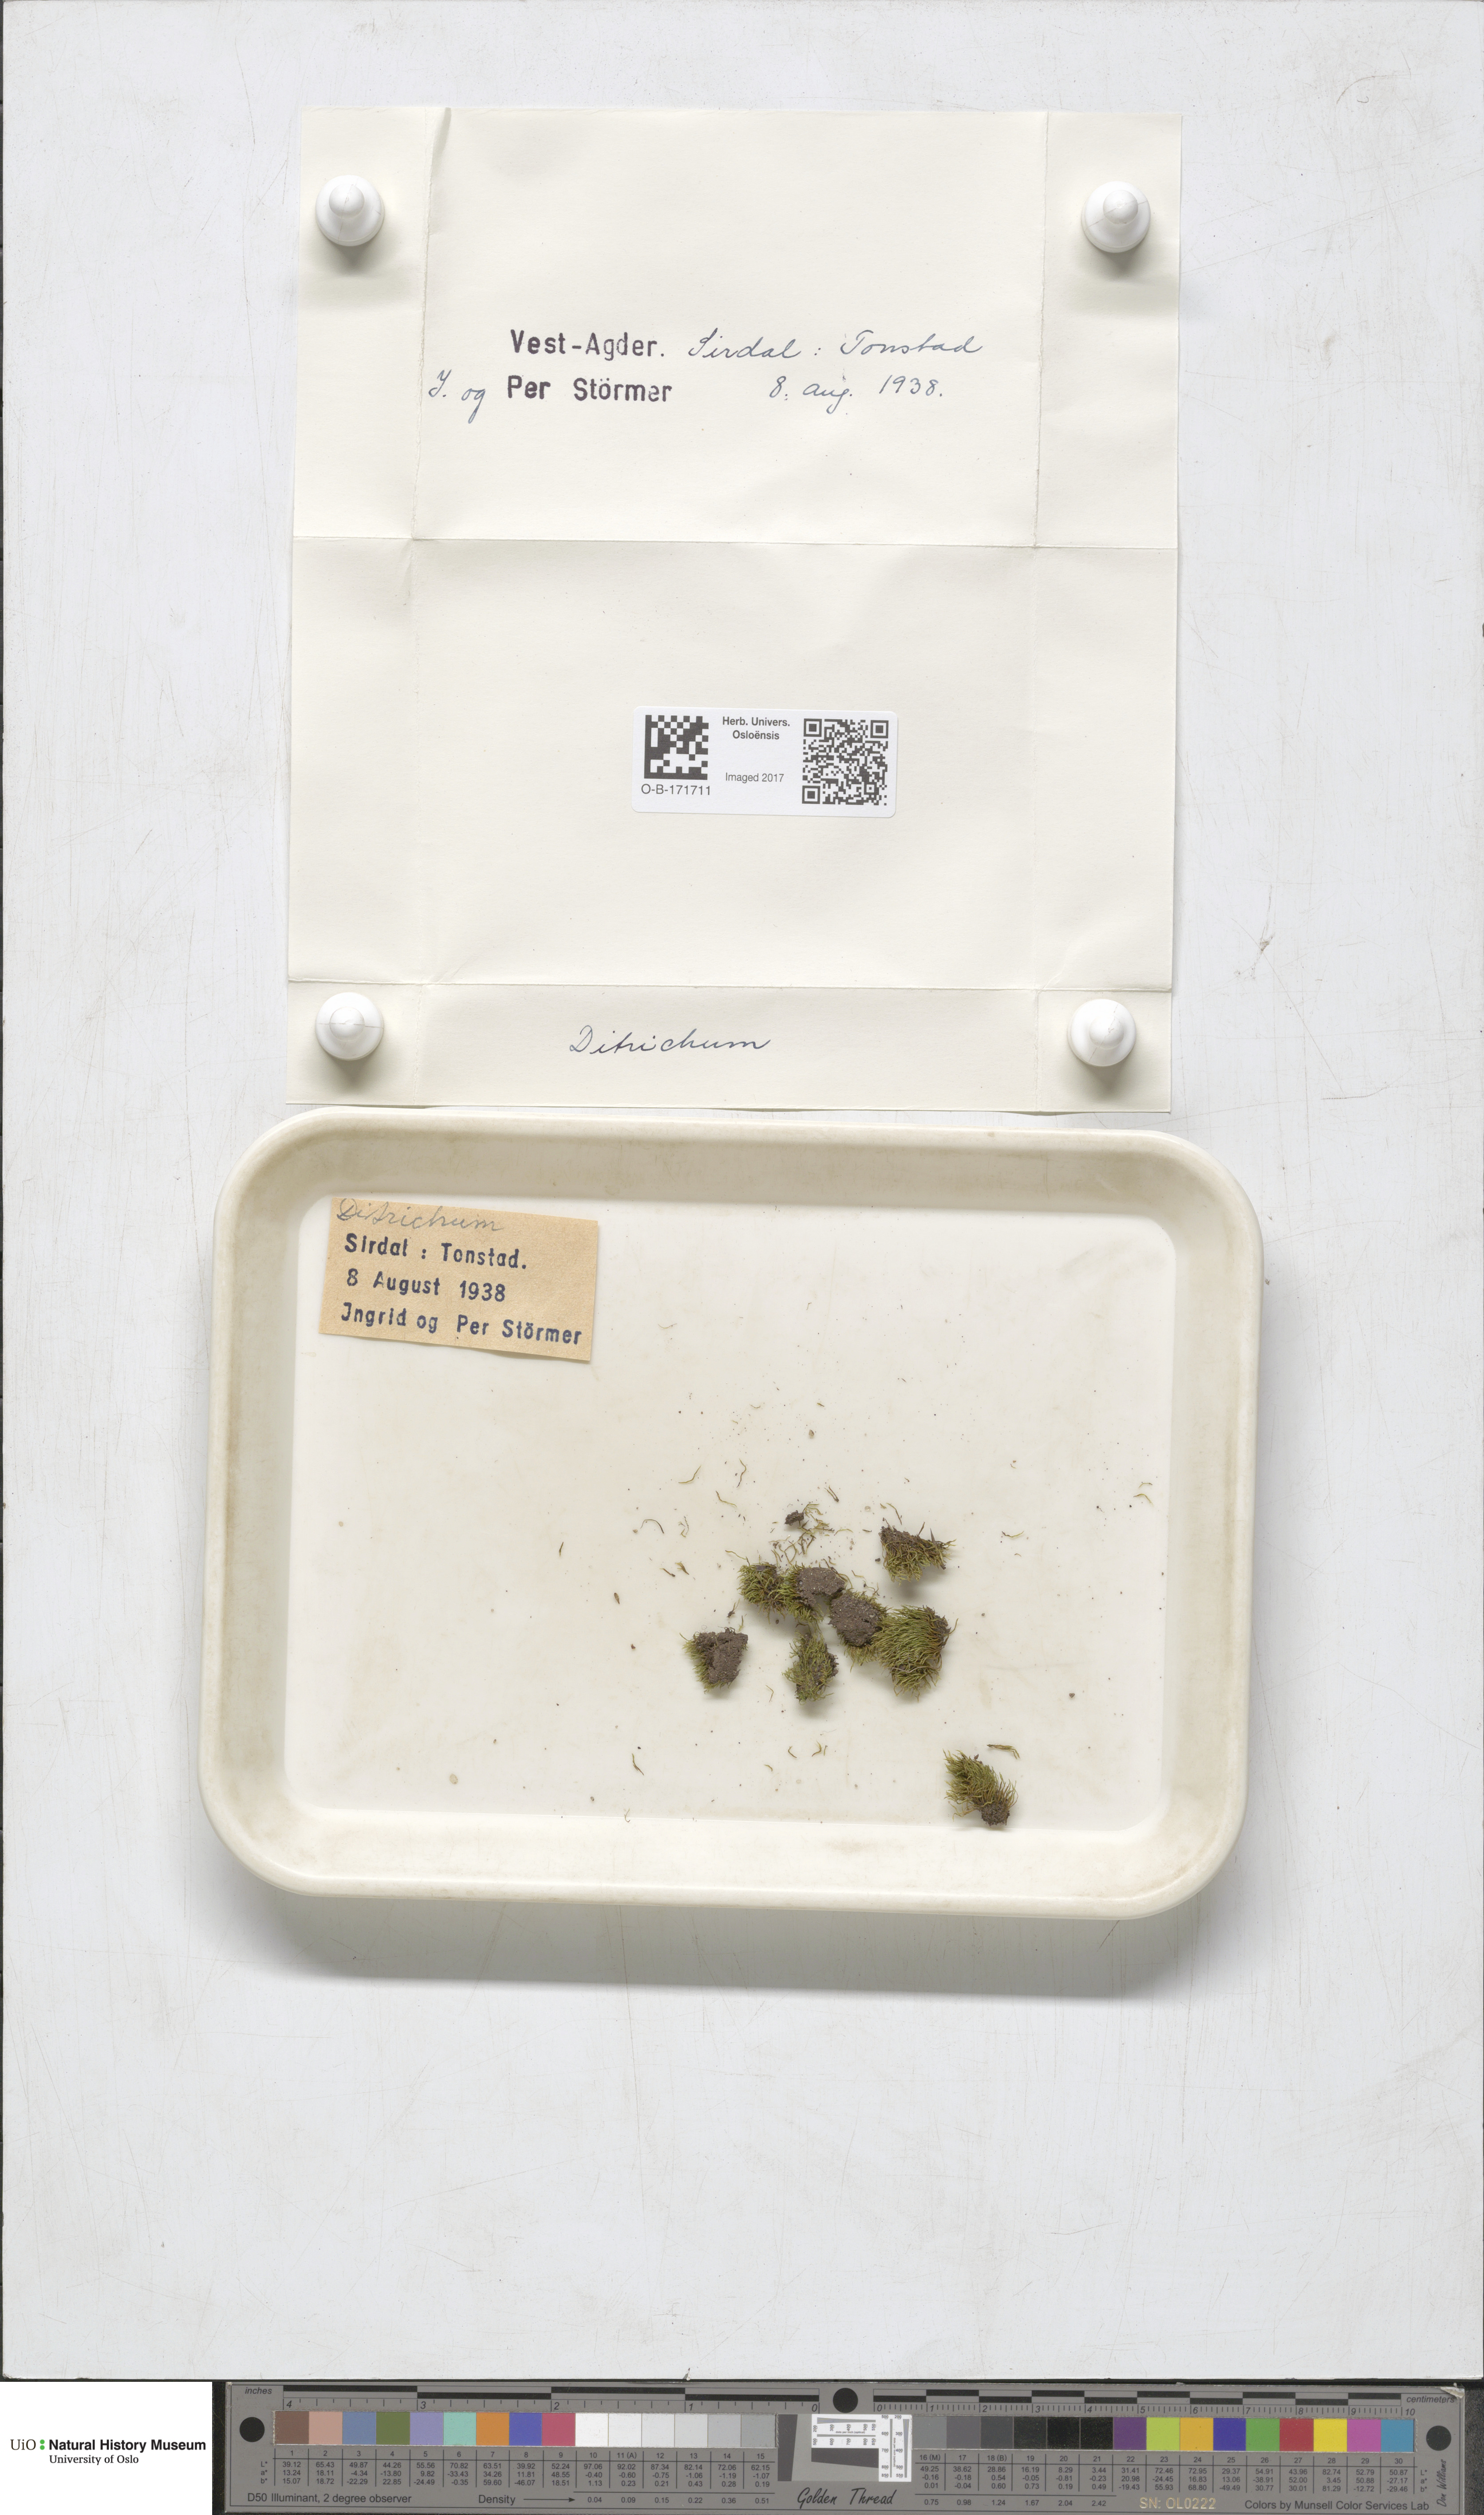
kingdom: Plantae
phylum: Bryophyta
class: Bryopsida
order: Dicranales
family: Ditrichaceae
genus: Ditrichum
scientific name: Ditrichum
